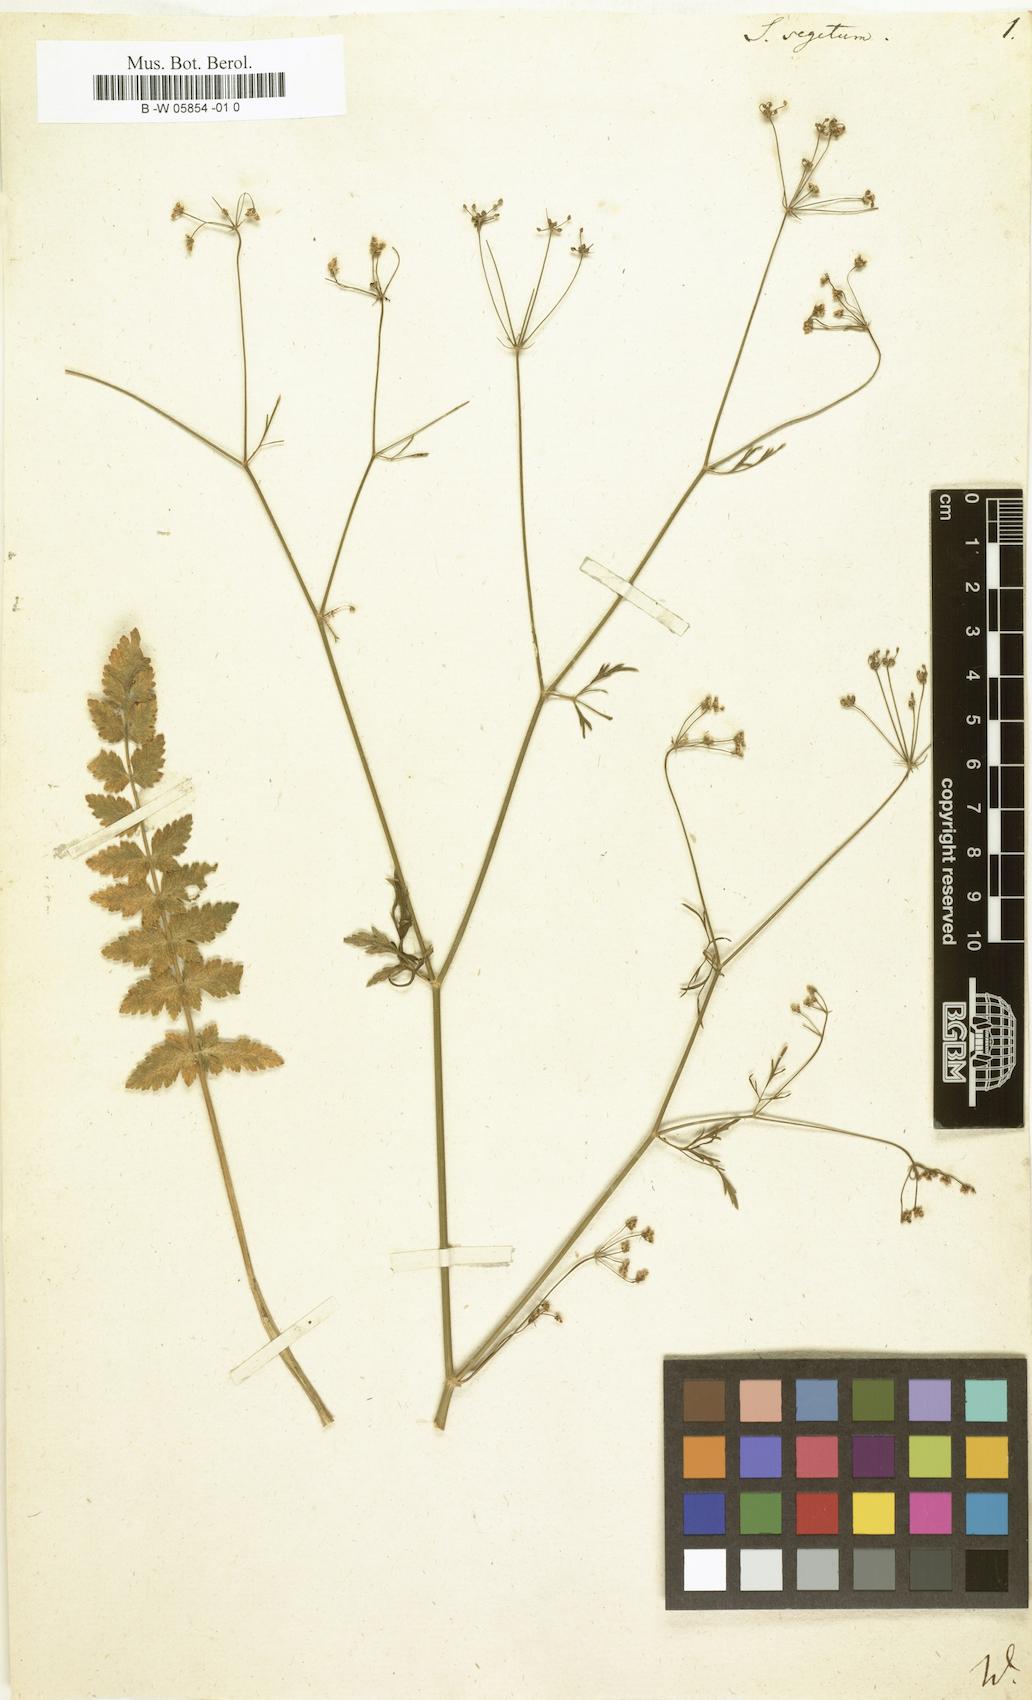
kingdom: Plantae
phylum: Tracheophyta
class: Magnoliopsida
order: Apiales
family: Apiaceae
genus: Sison
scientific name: Sison segetum
